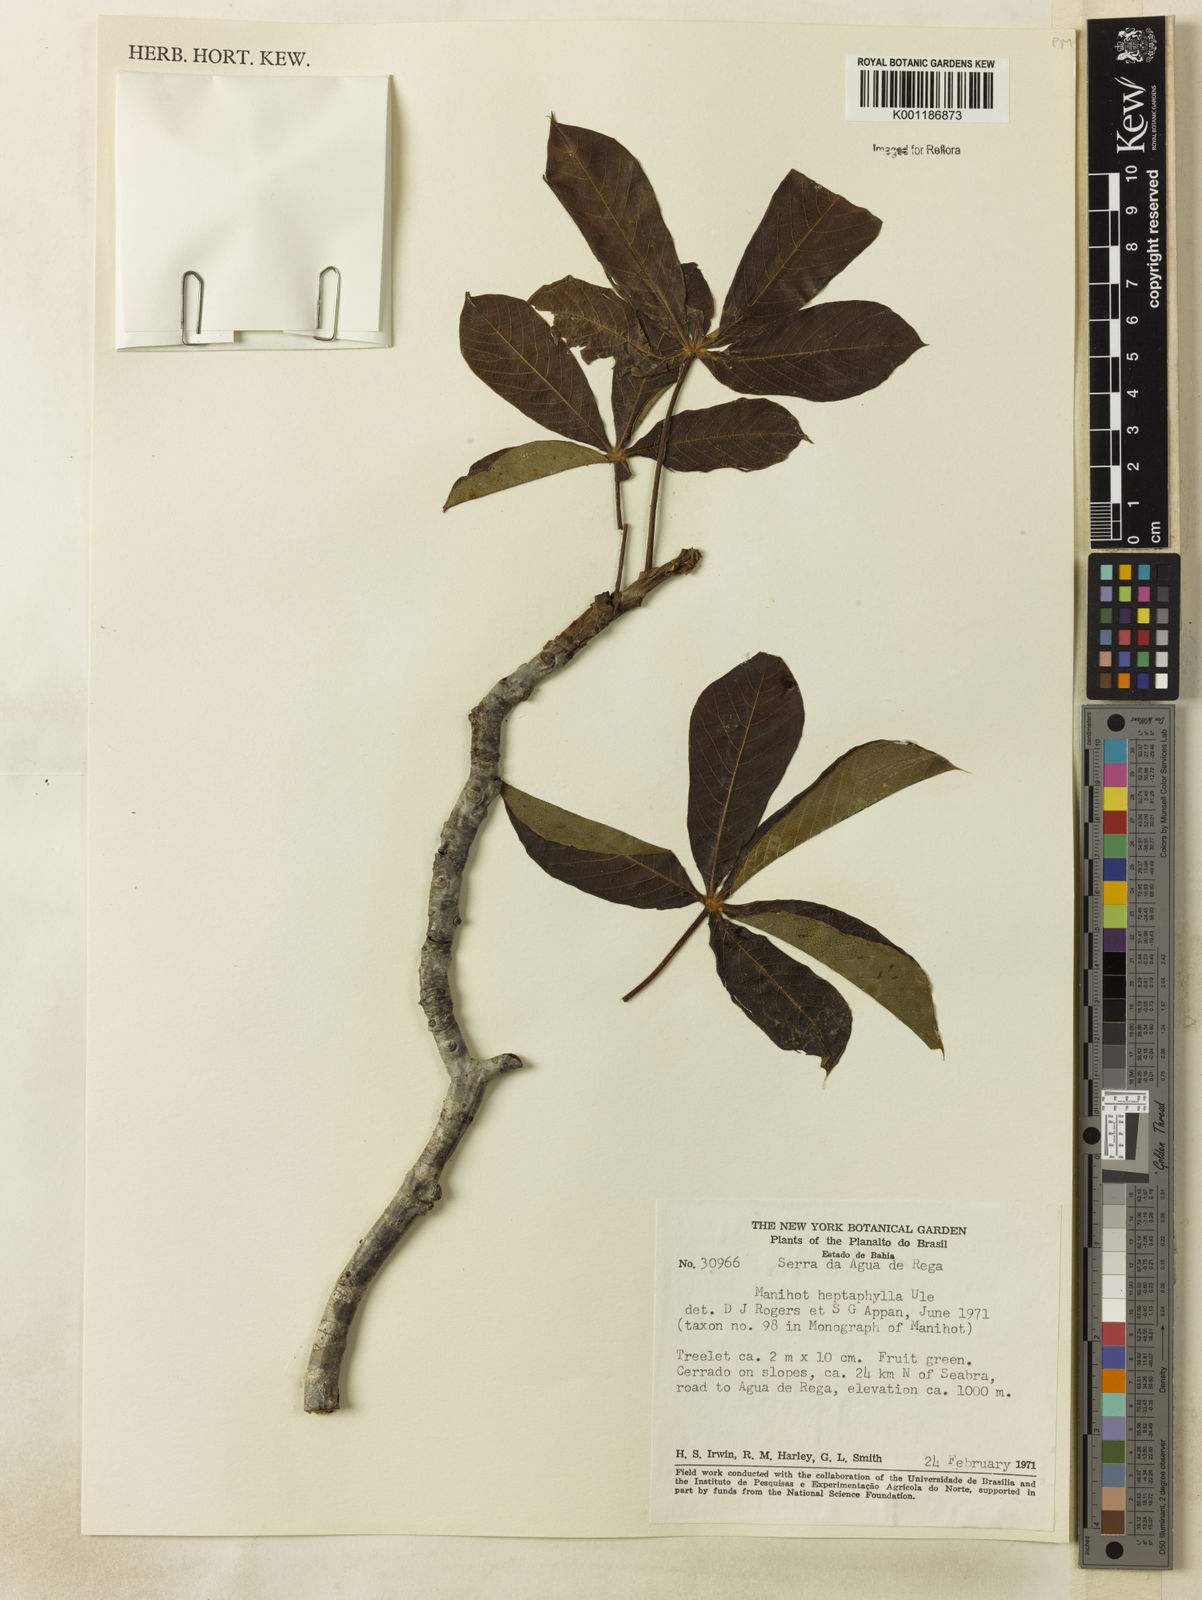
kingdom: Plantae
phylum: Tracheophyta
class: Magnoliopsida
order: Malpighiales
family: Euphorbiaceae
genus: Manihot
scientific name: Manihot heptaphylla
